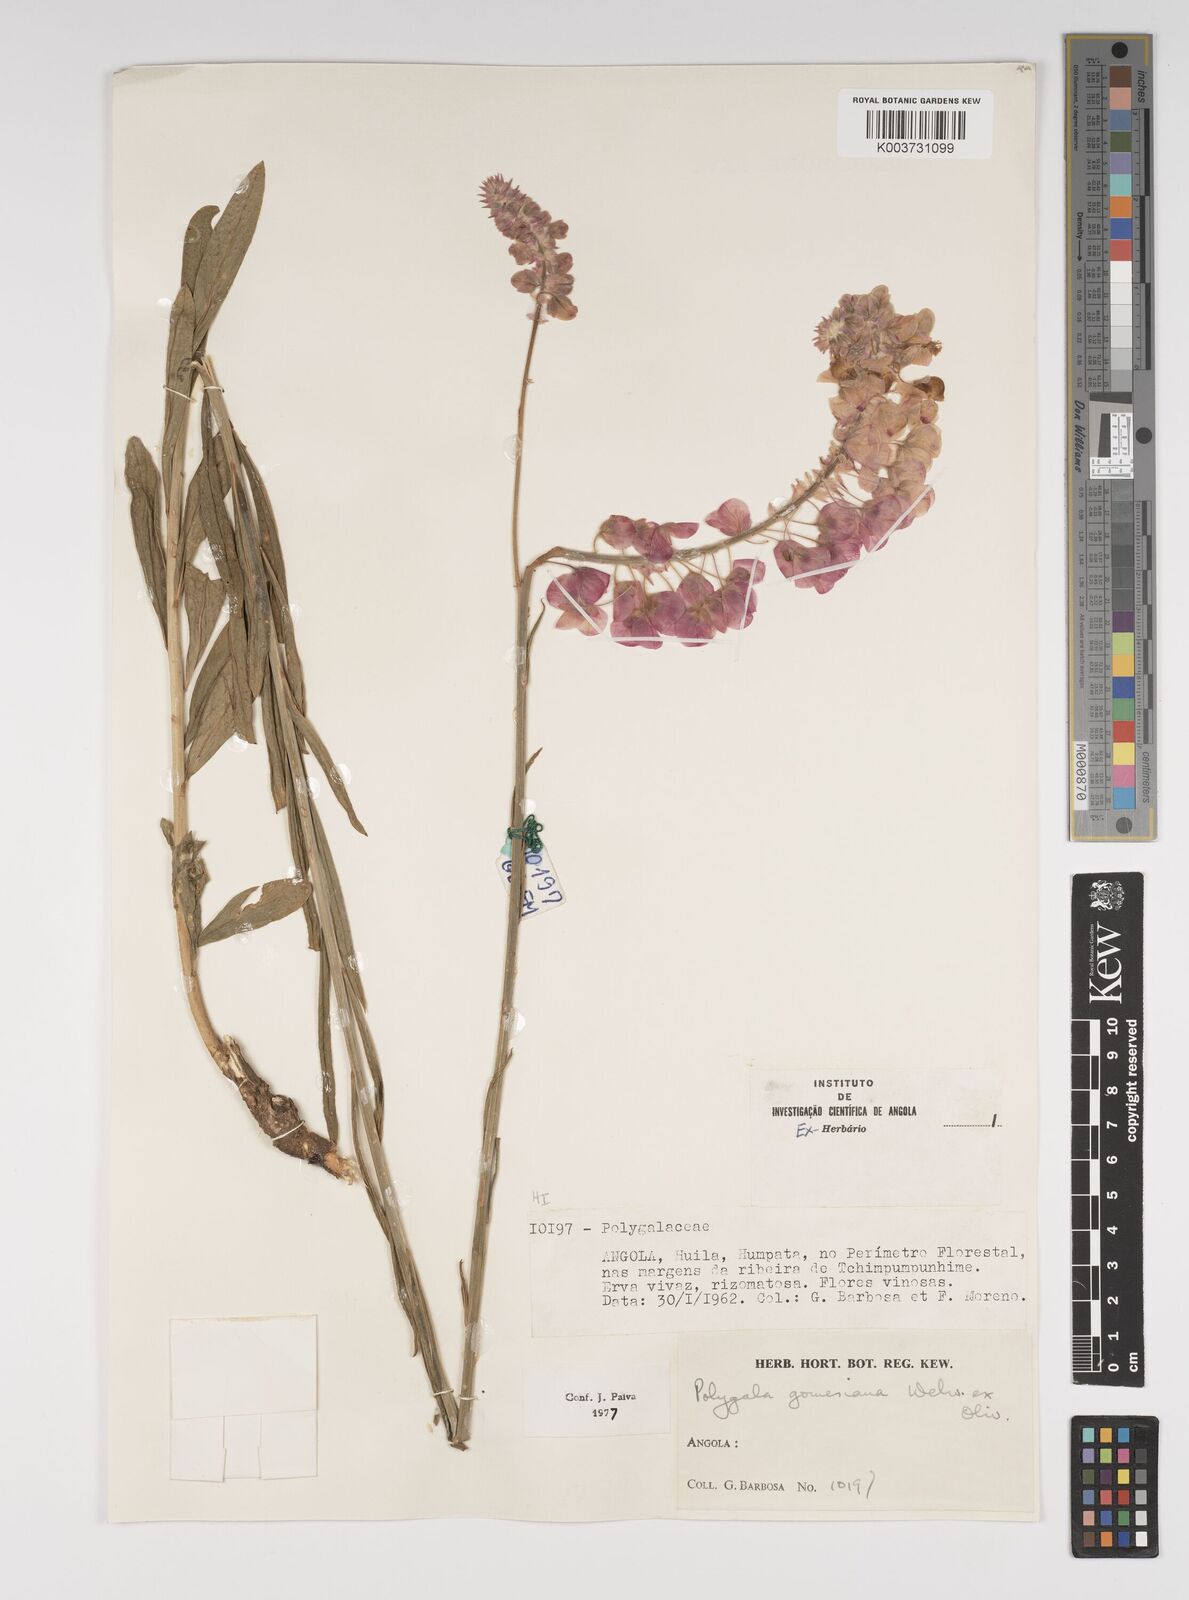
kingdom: Plantae
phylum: Tracheophyta
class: Magnoliopsida
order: Fabales
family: Polygalaceae
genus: Polygala
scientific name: Polygala gomesiana
